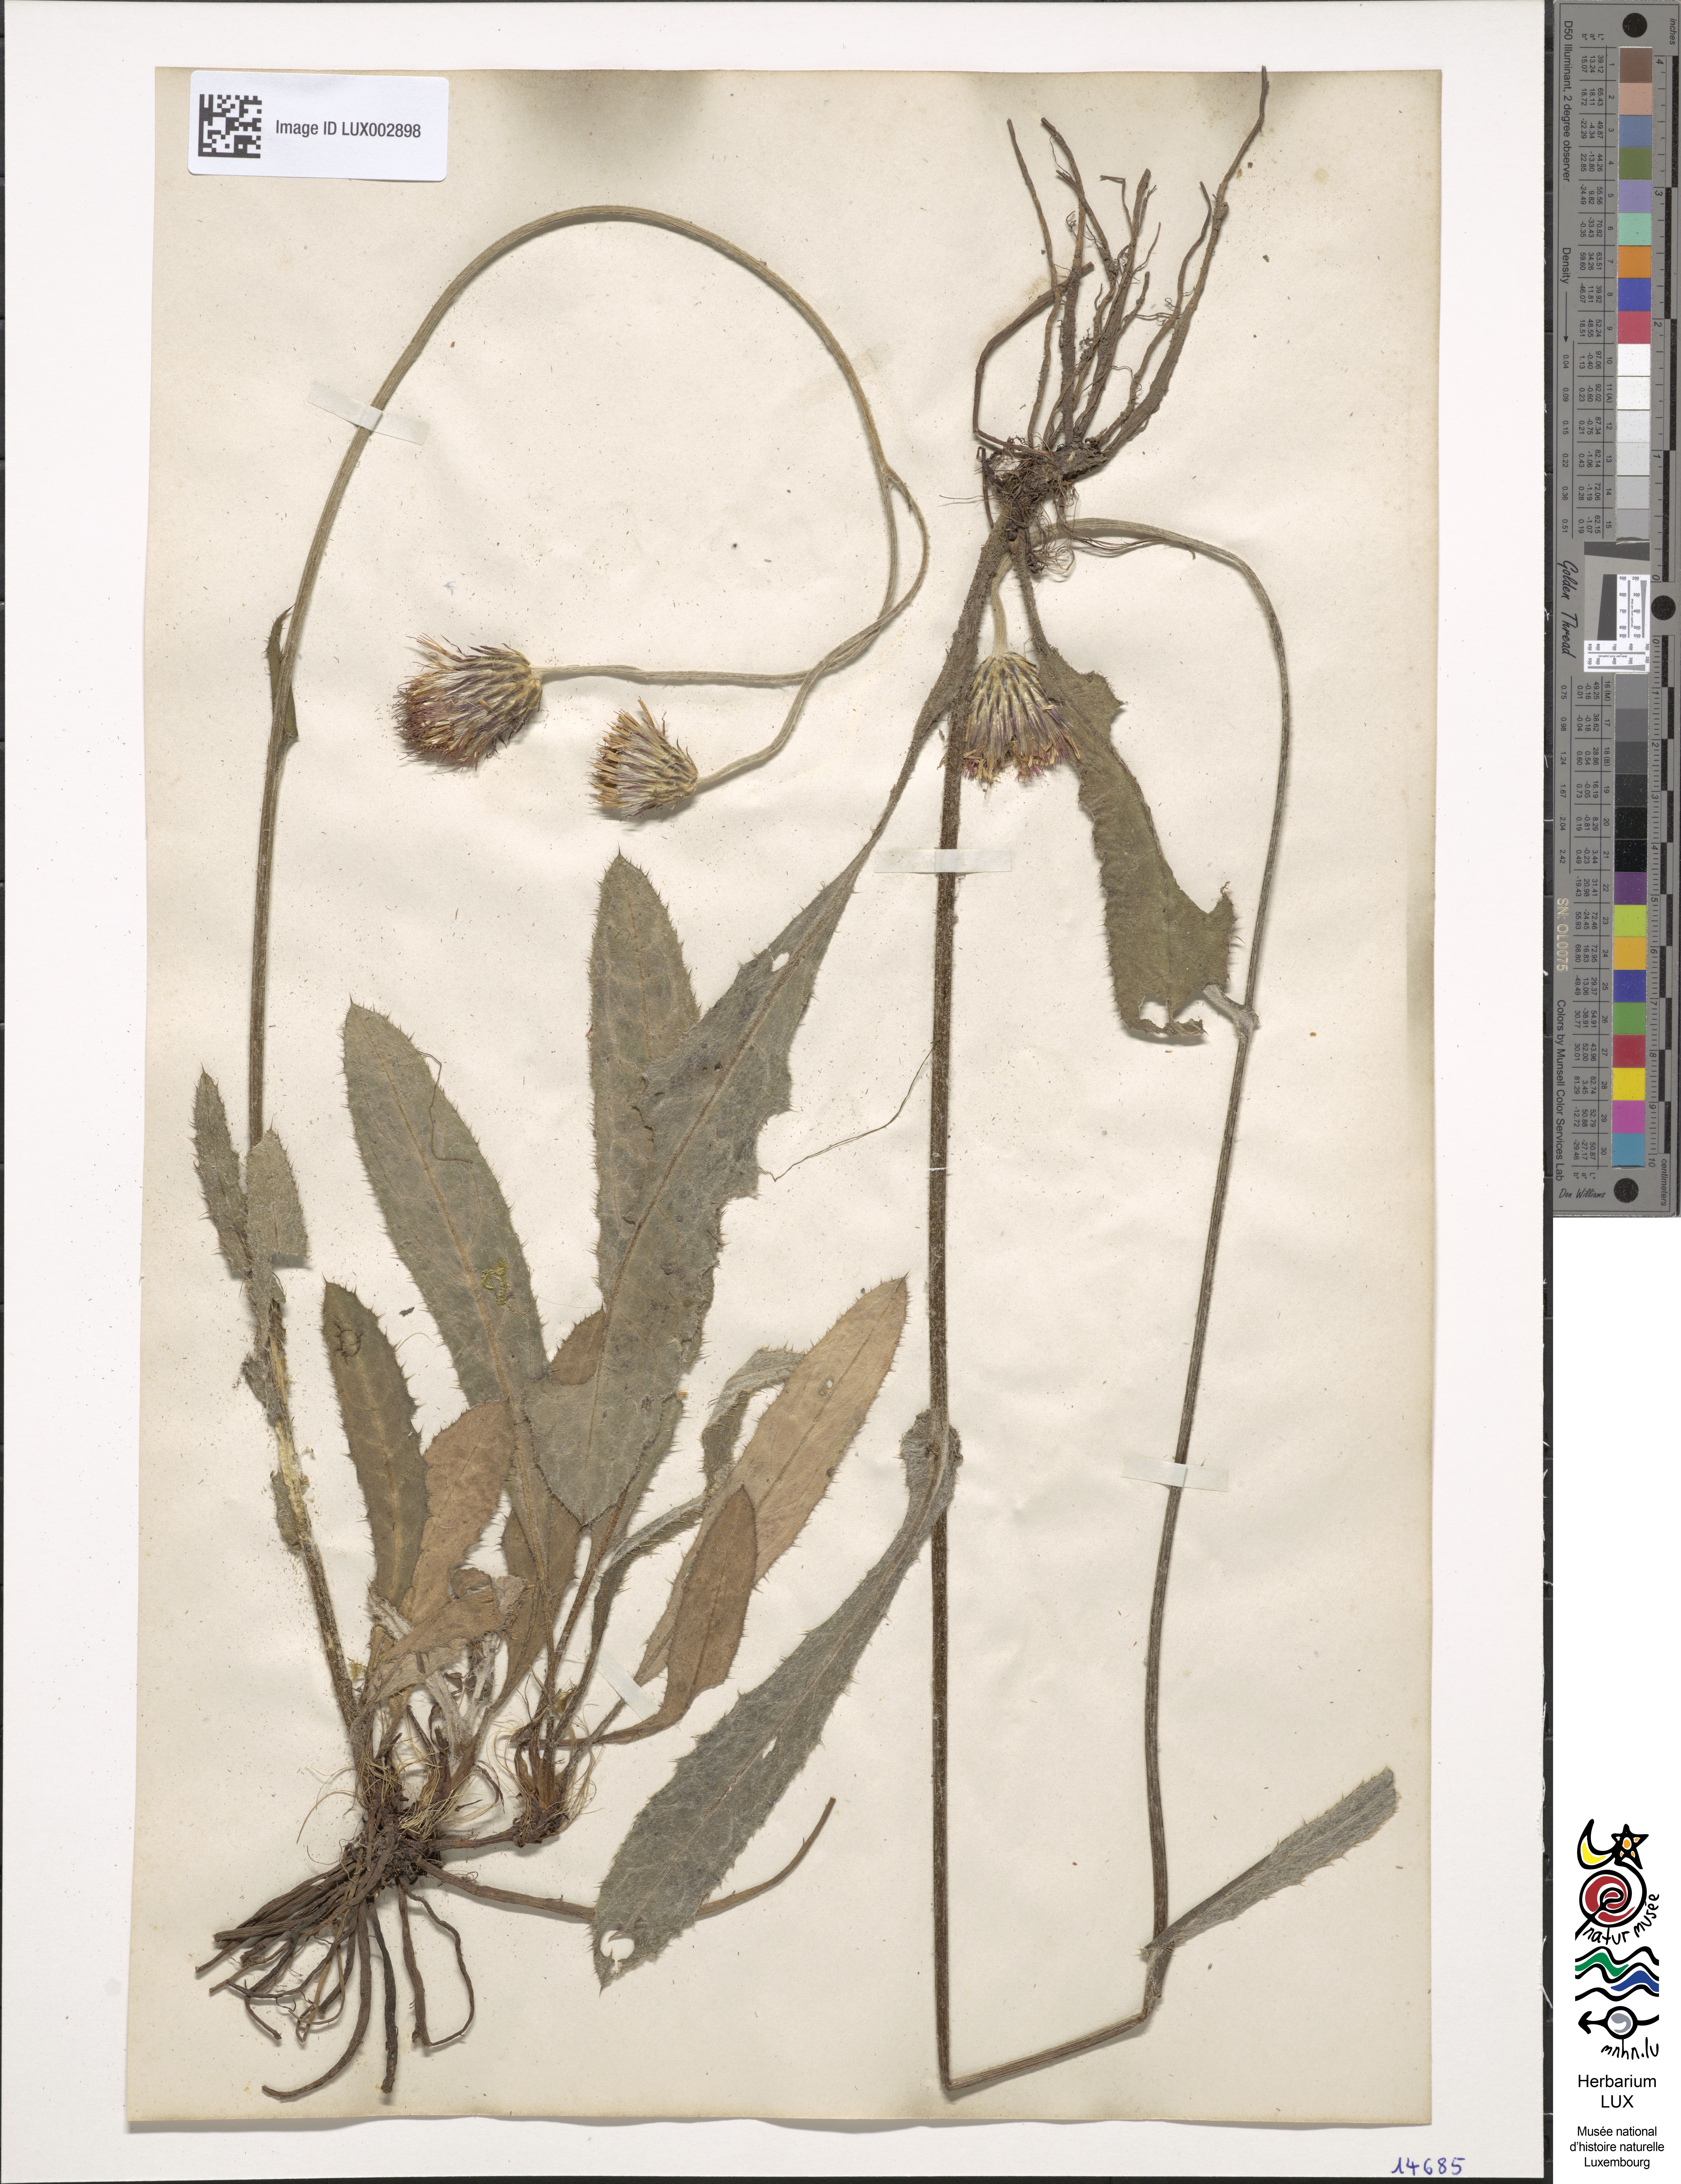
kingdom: Plantae
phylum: Tracheophyta
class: Magnoliopsida
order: Asterales
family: Asteraceae
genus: Cirsium
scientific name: Cirsium dissectum
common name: Meadow thistle
